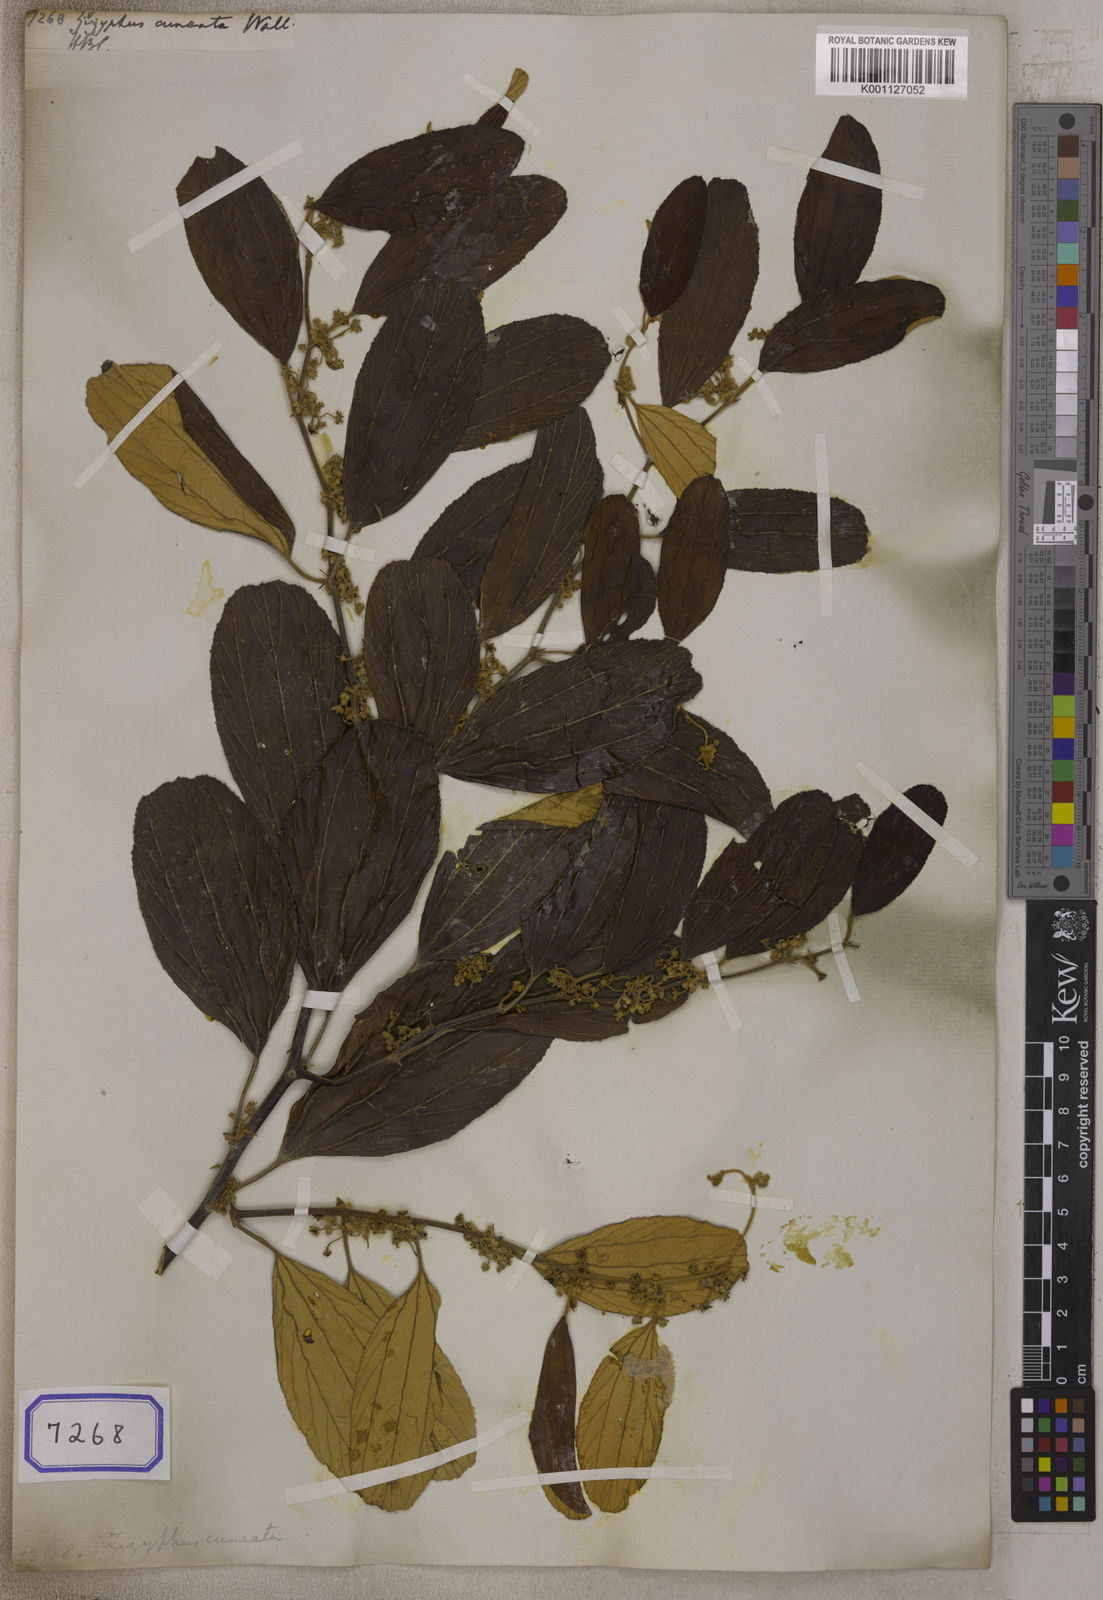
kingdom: Plantae
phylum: Tracheophyta
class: Magnoliopsida
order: Rosales
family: Rhamnaceae
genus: Ziziphus
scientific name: Ziziphus xylopyrus
